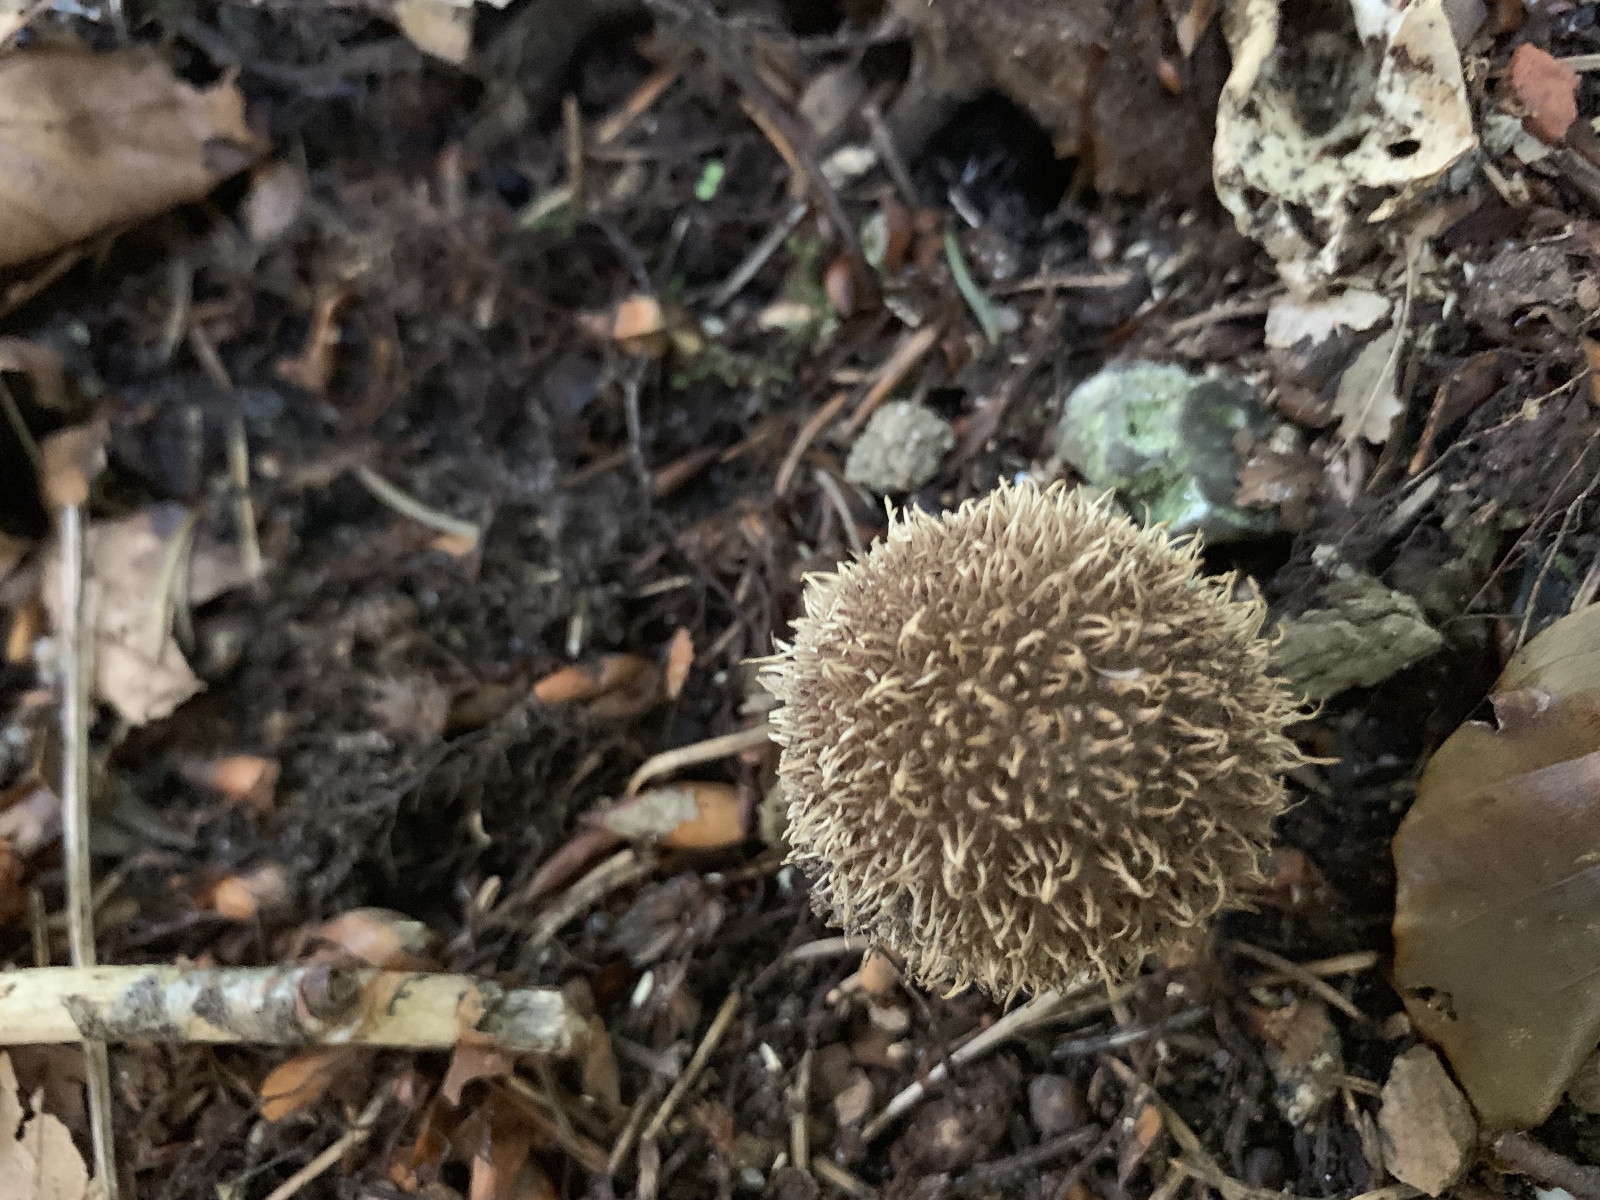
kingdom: Fungi
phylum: Basidiomycota
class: Agaricomycetes
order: Agaricales
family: Lycoperdaceae
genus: Lycoperdon
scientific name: Lycoperdon echinatum
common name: pindsvine-støvbold
